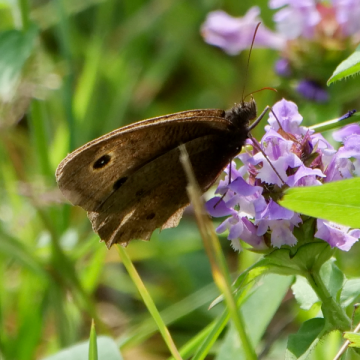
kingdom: Animalia
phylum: Arthropoda
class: Insecta
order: Lepidoptera
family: Nymphalidae
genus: Cercyonis
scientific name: Cercyonis pegala
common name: Common Wood-Nymph
